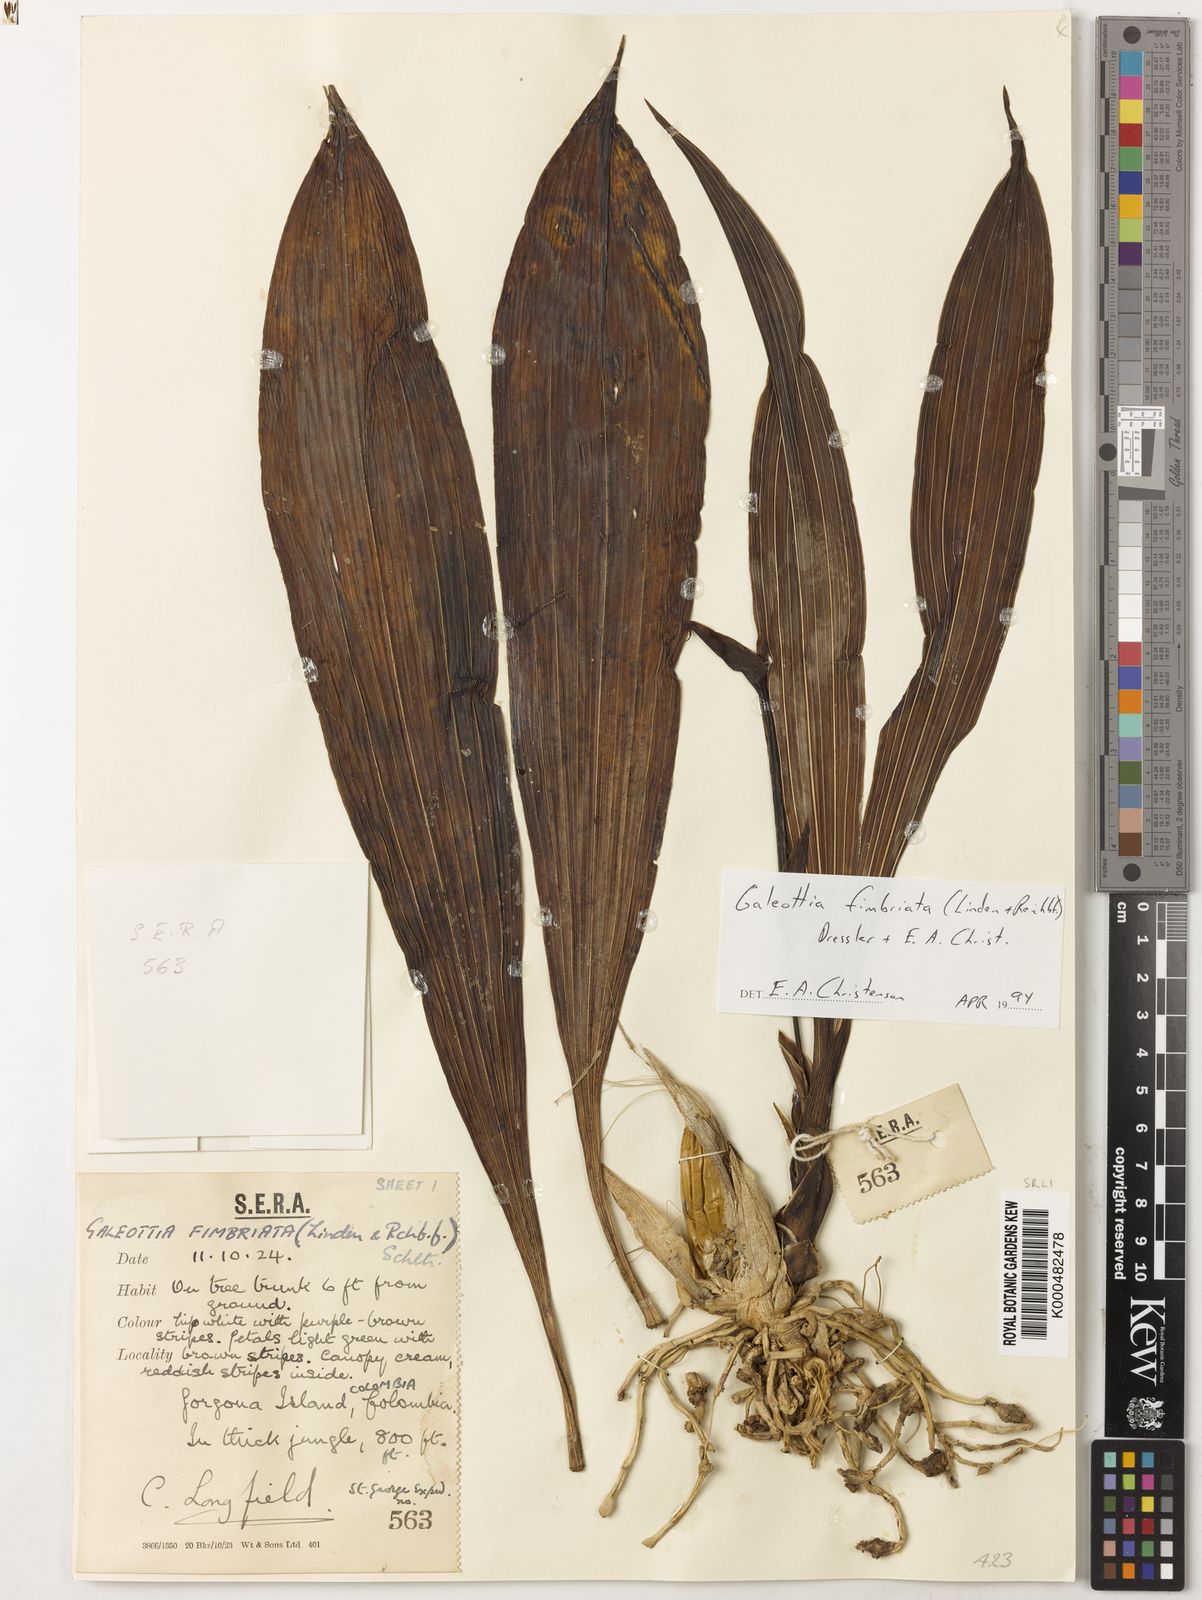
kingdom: Plantae
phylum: Tracheophyta
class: Liliopsida
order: Asparagales
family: Orchidaceae
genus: Galeottia
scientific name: Galeottia
